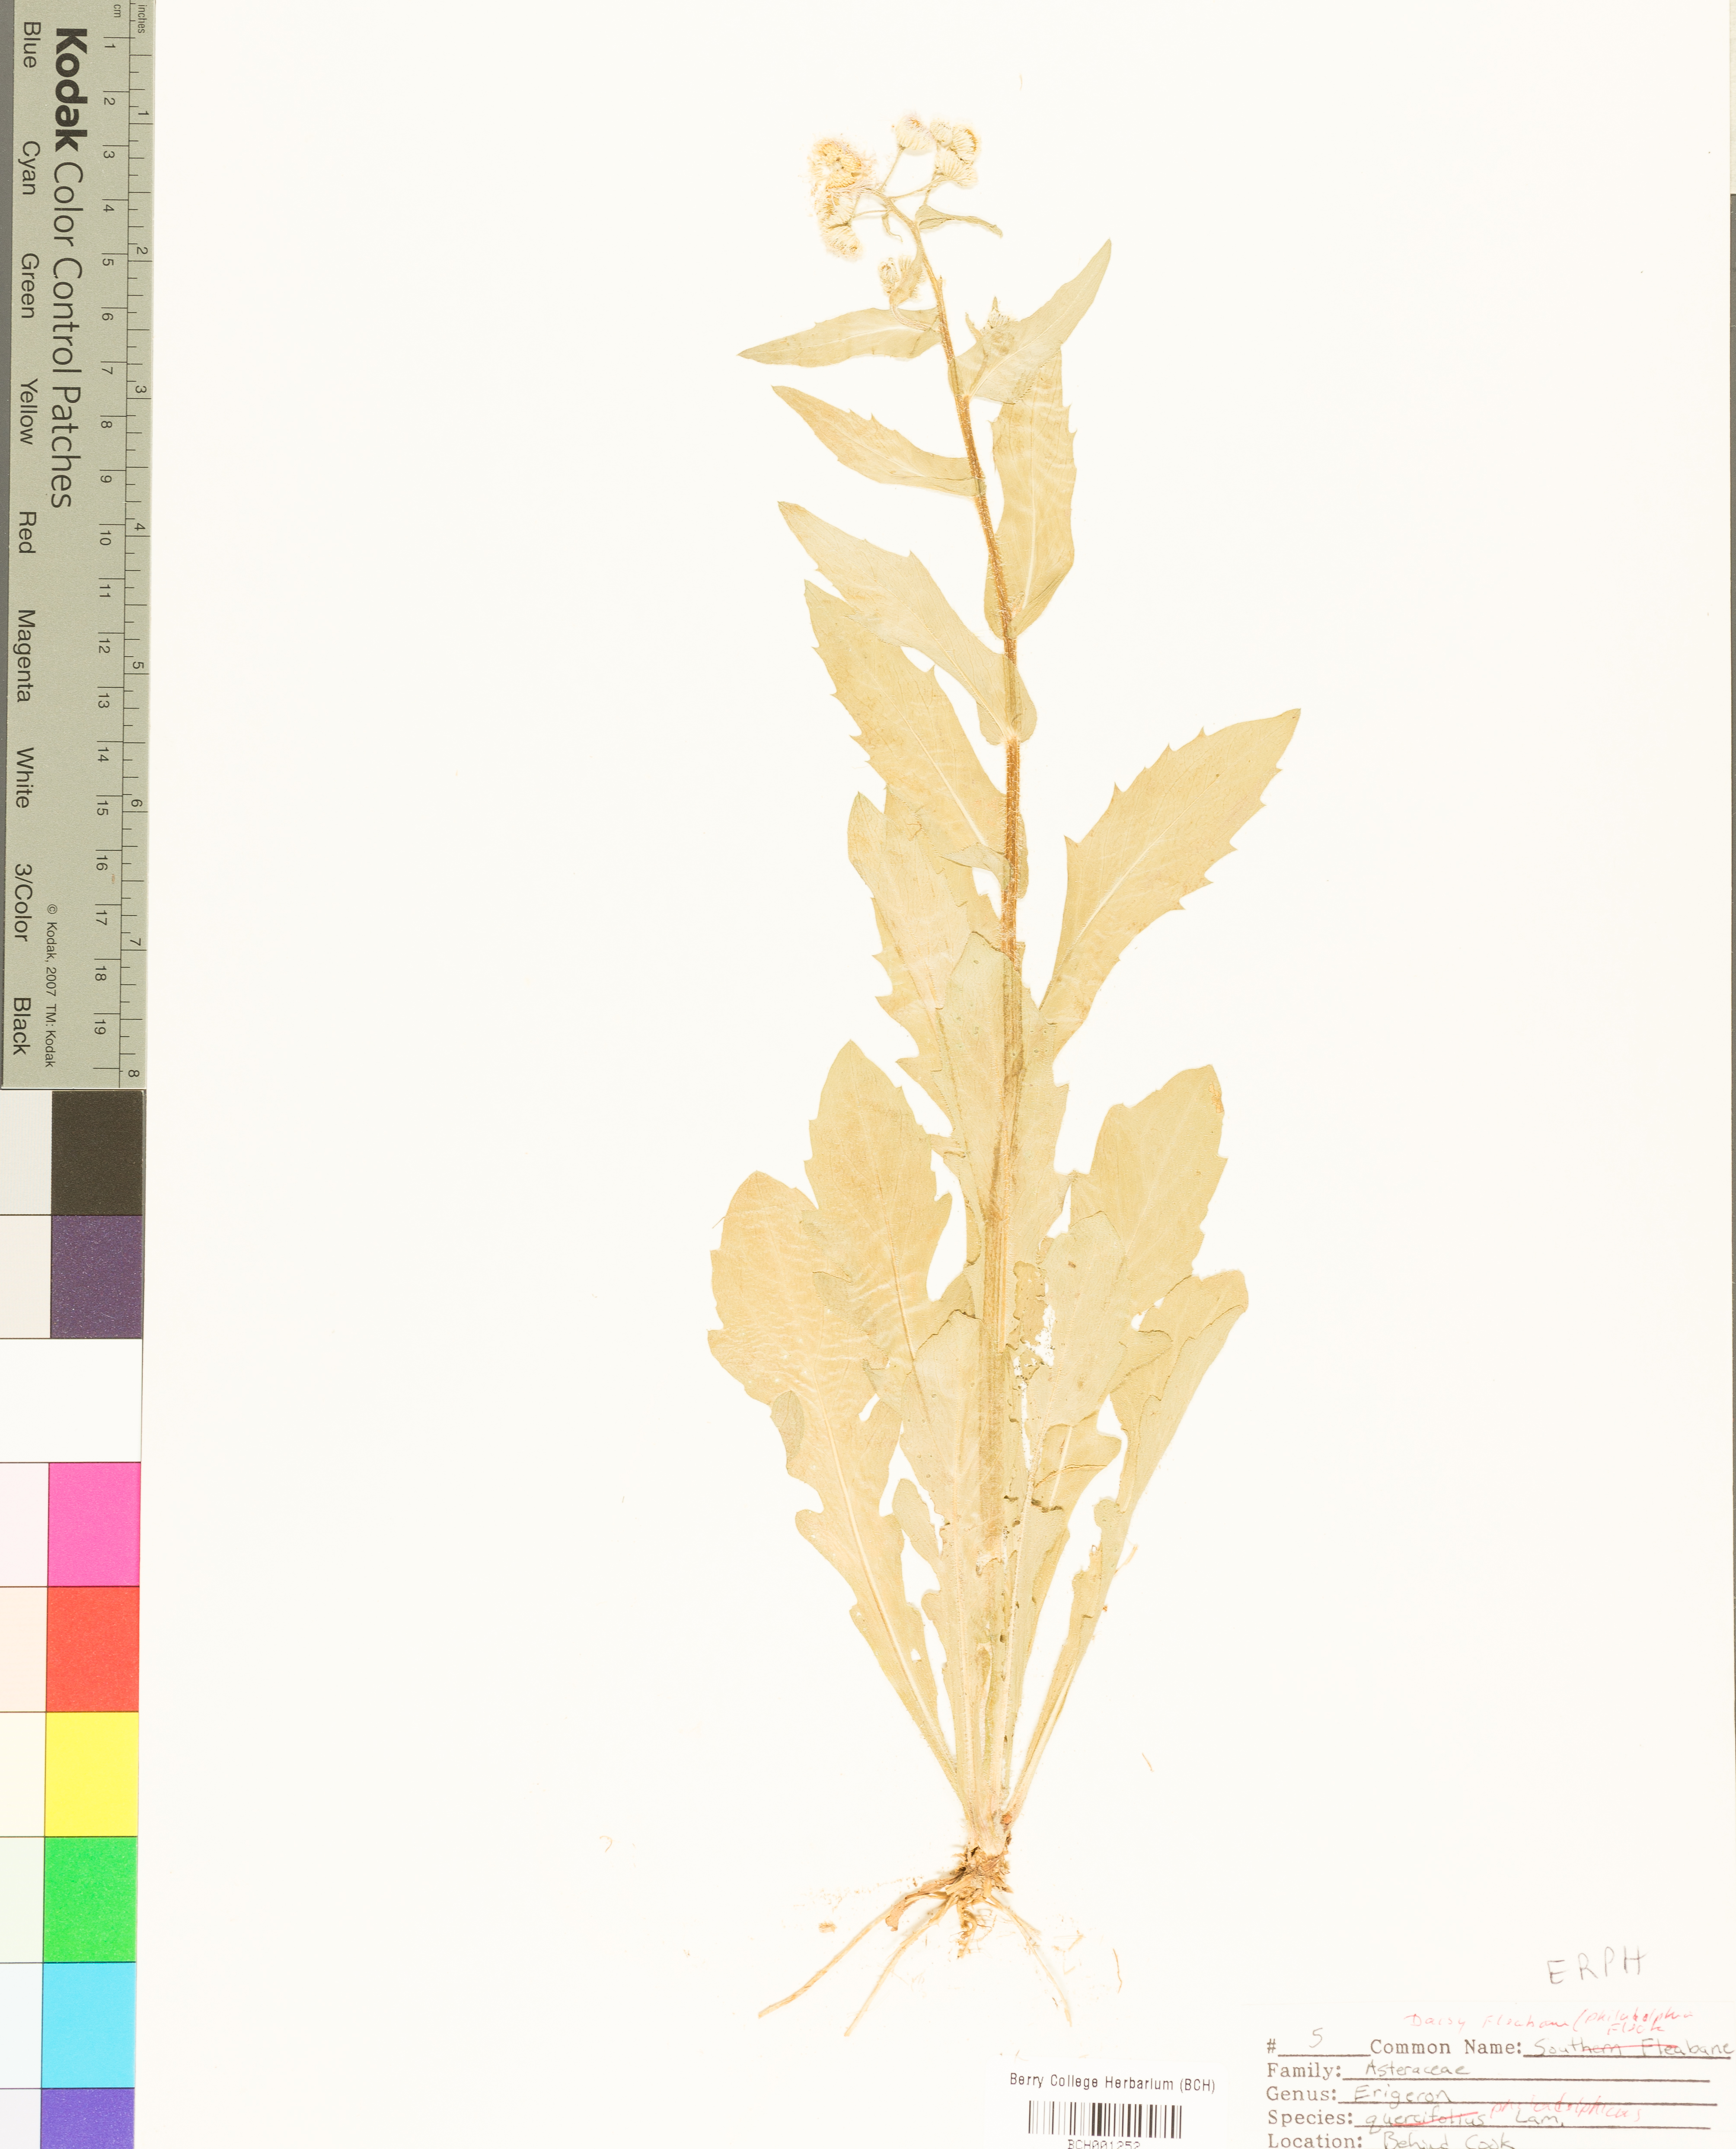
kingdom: Plantae
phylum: Tracheophyta
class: Magnoliopsida
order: Asterales
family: Asteraceae
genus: Erigeron
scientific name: Erigeron philadelphicus
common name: Robin's-plantain
